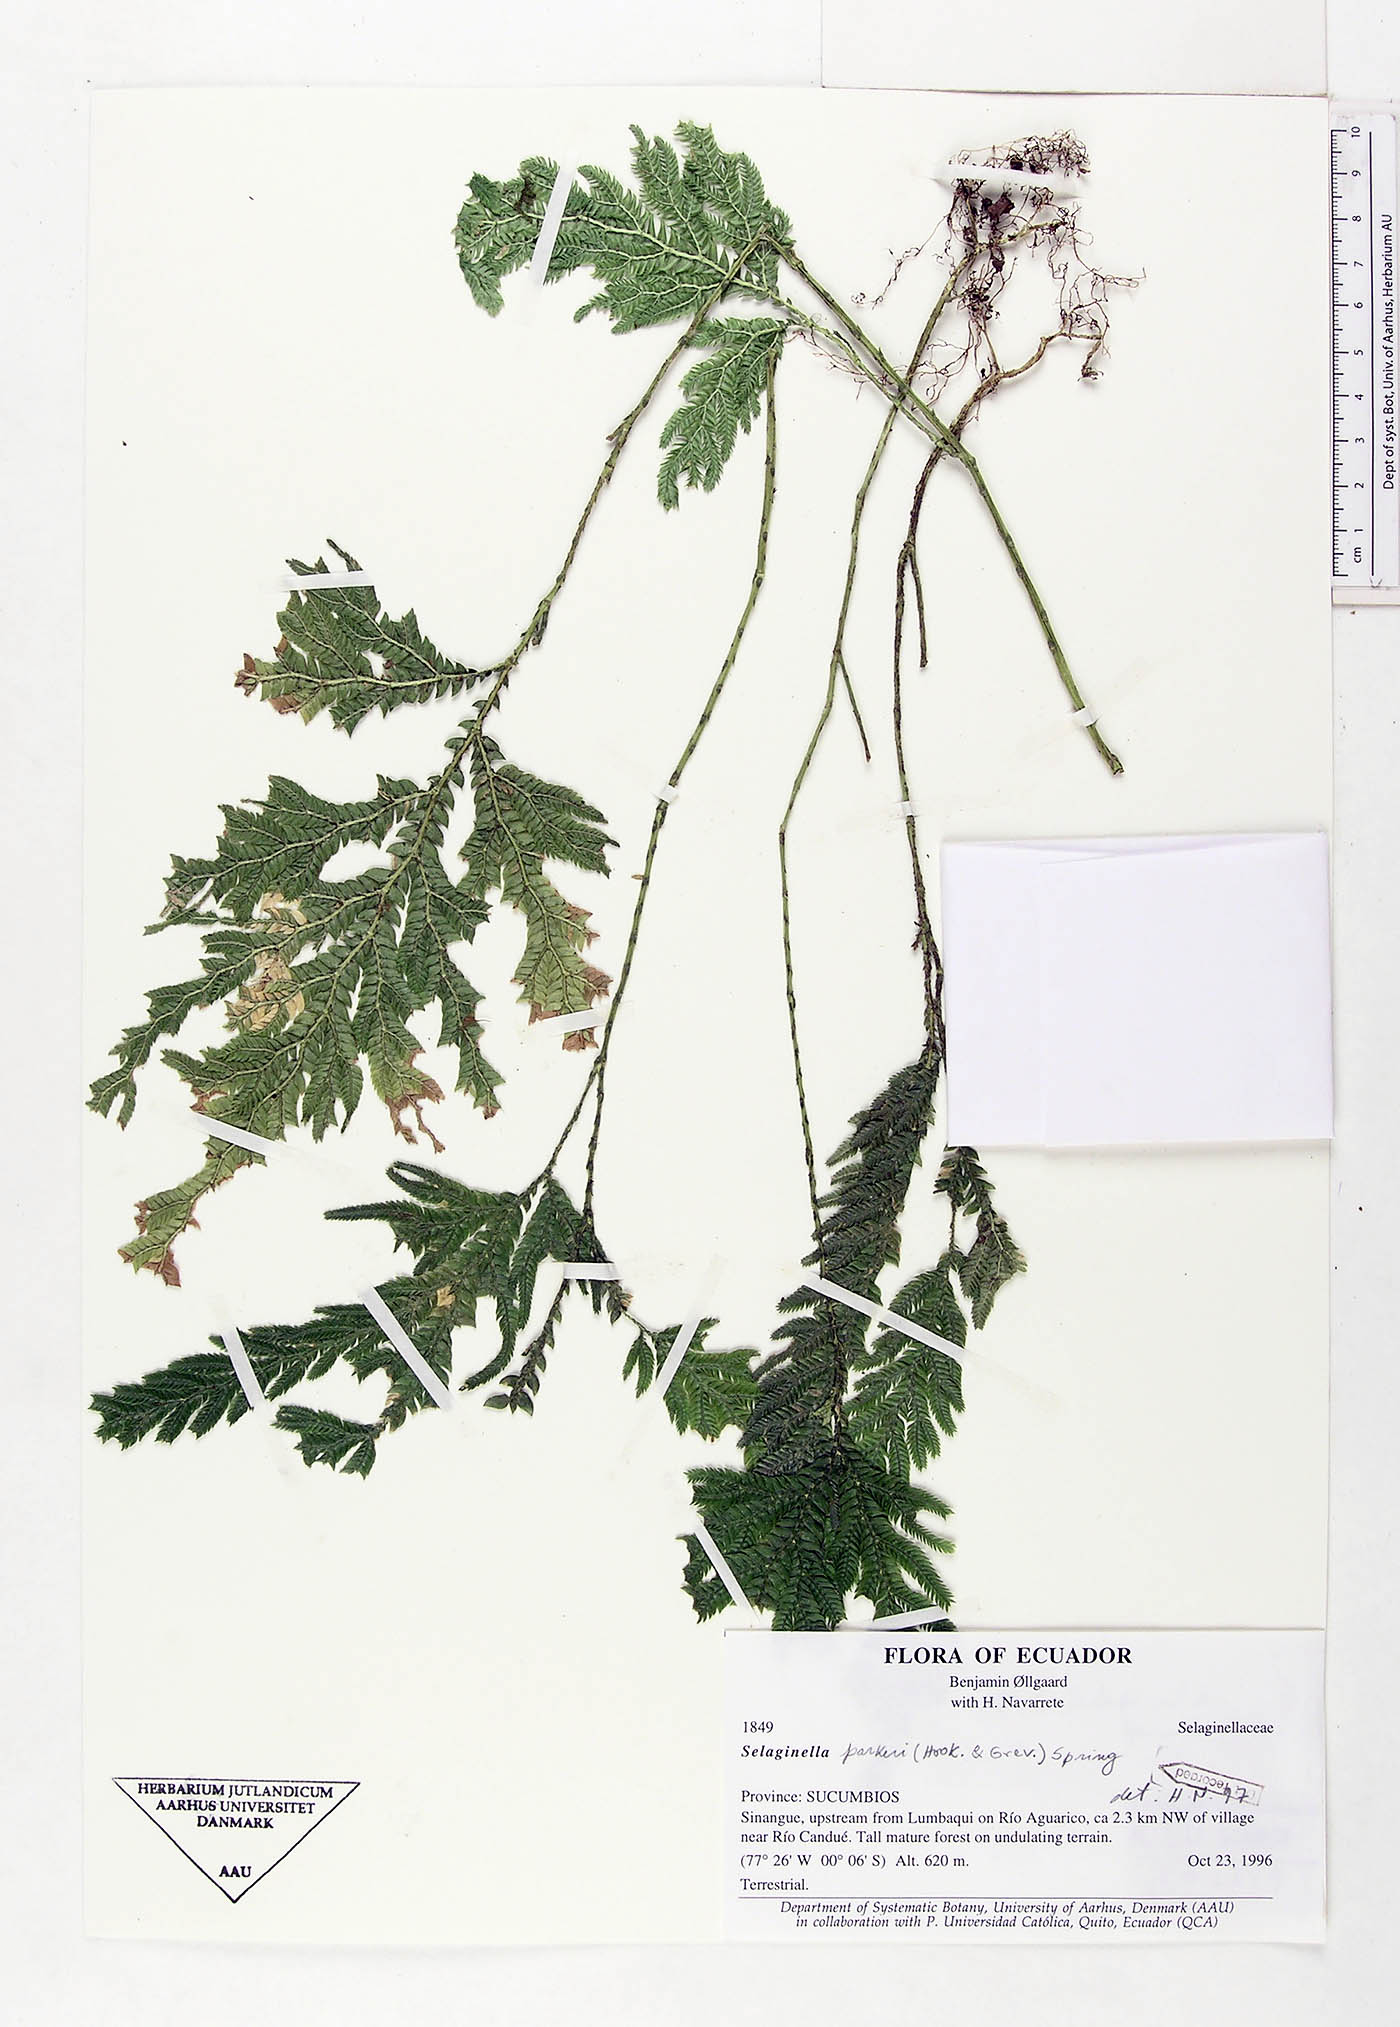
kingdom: Plantae
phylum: Tracheophyta
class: Lycopodiopsida
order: Selaginellales
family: Selaginellaceae
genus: Selaginella
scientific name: Selaginella parkeri
